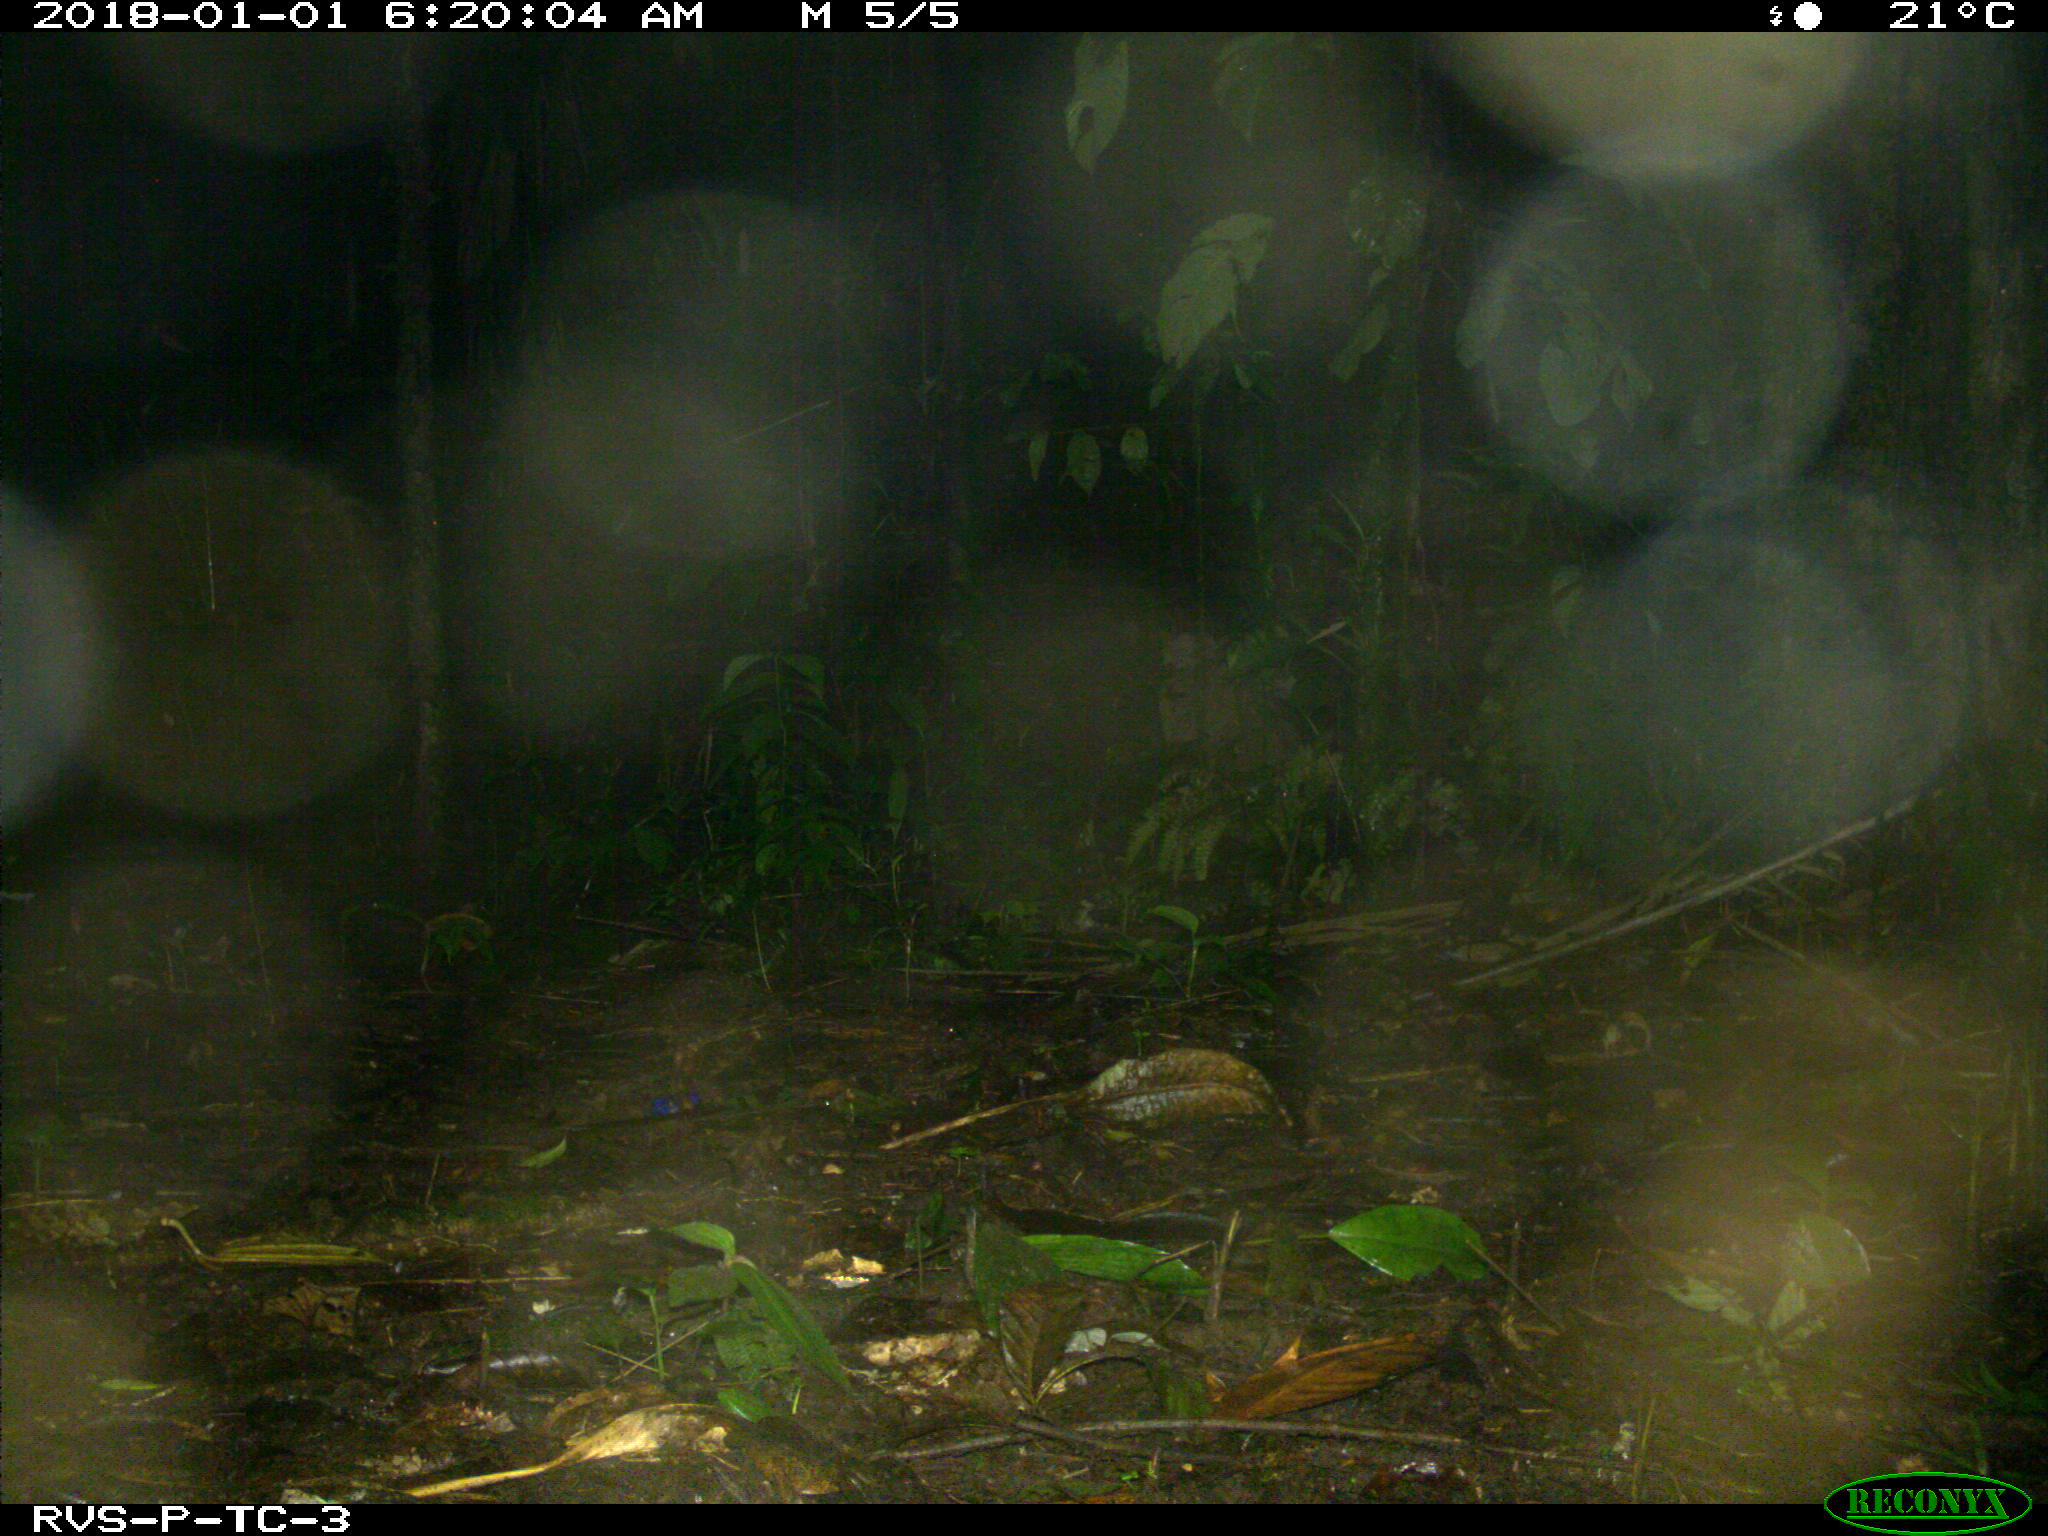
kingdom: Animalia
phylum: Chordata
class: Mammalia
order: Rodentia
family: Dasyproctidae
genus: Dasyprocta
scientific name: Dasyprocta punctata
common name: Central american agouti
